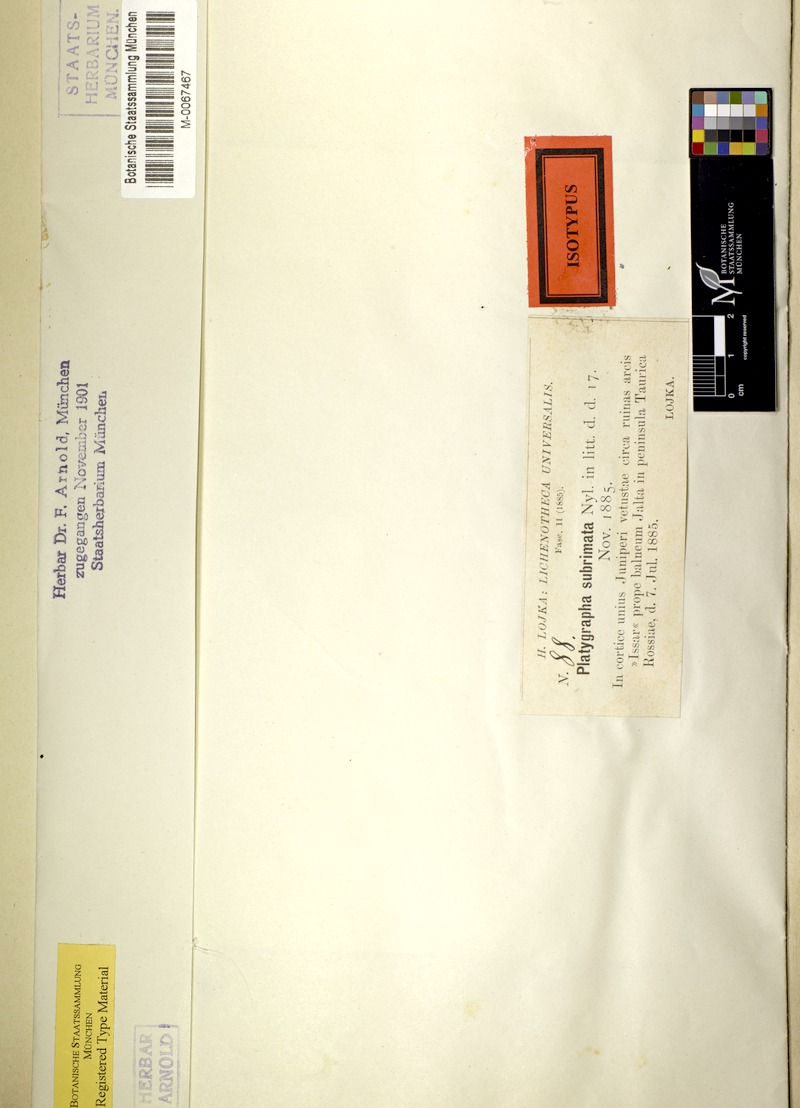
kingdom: Fungi
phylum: Ascomycota
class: Arthoniomycetes
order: Arthoniales
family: Roccellaceae
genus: Schismatomma
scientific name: Schismatomma
